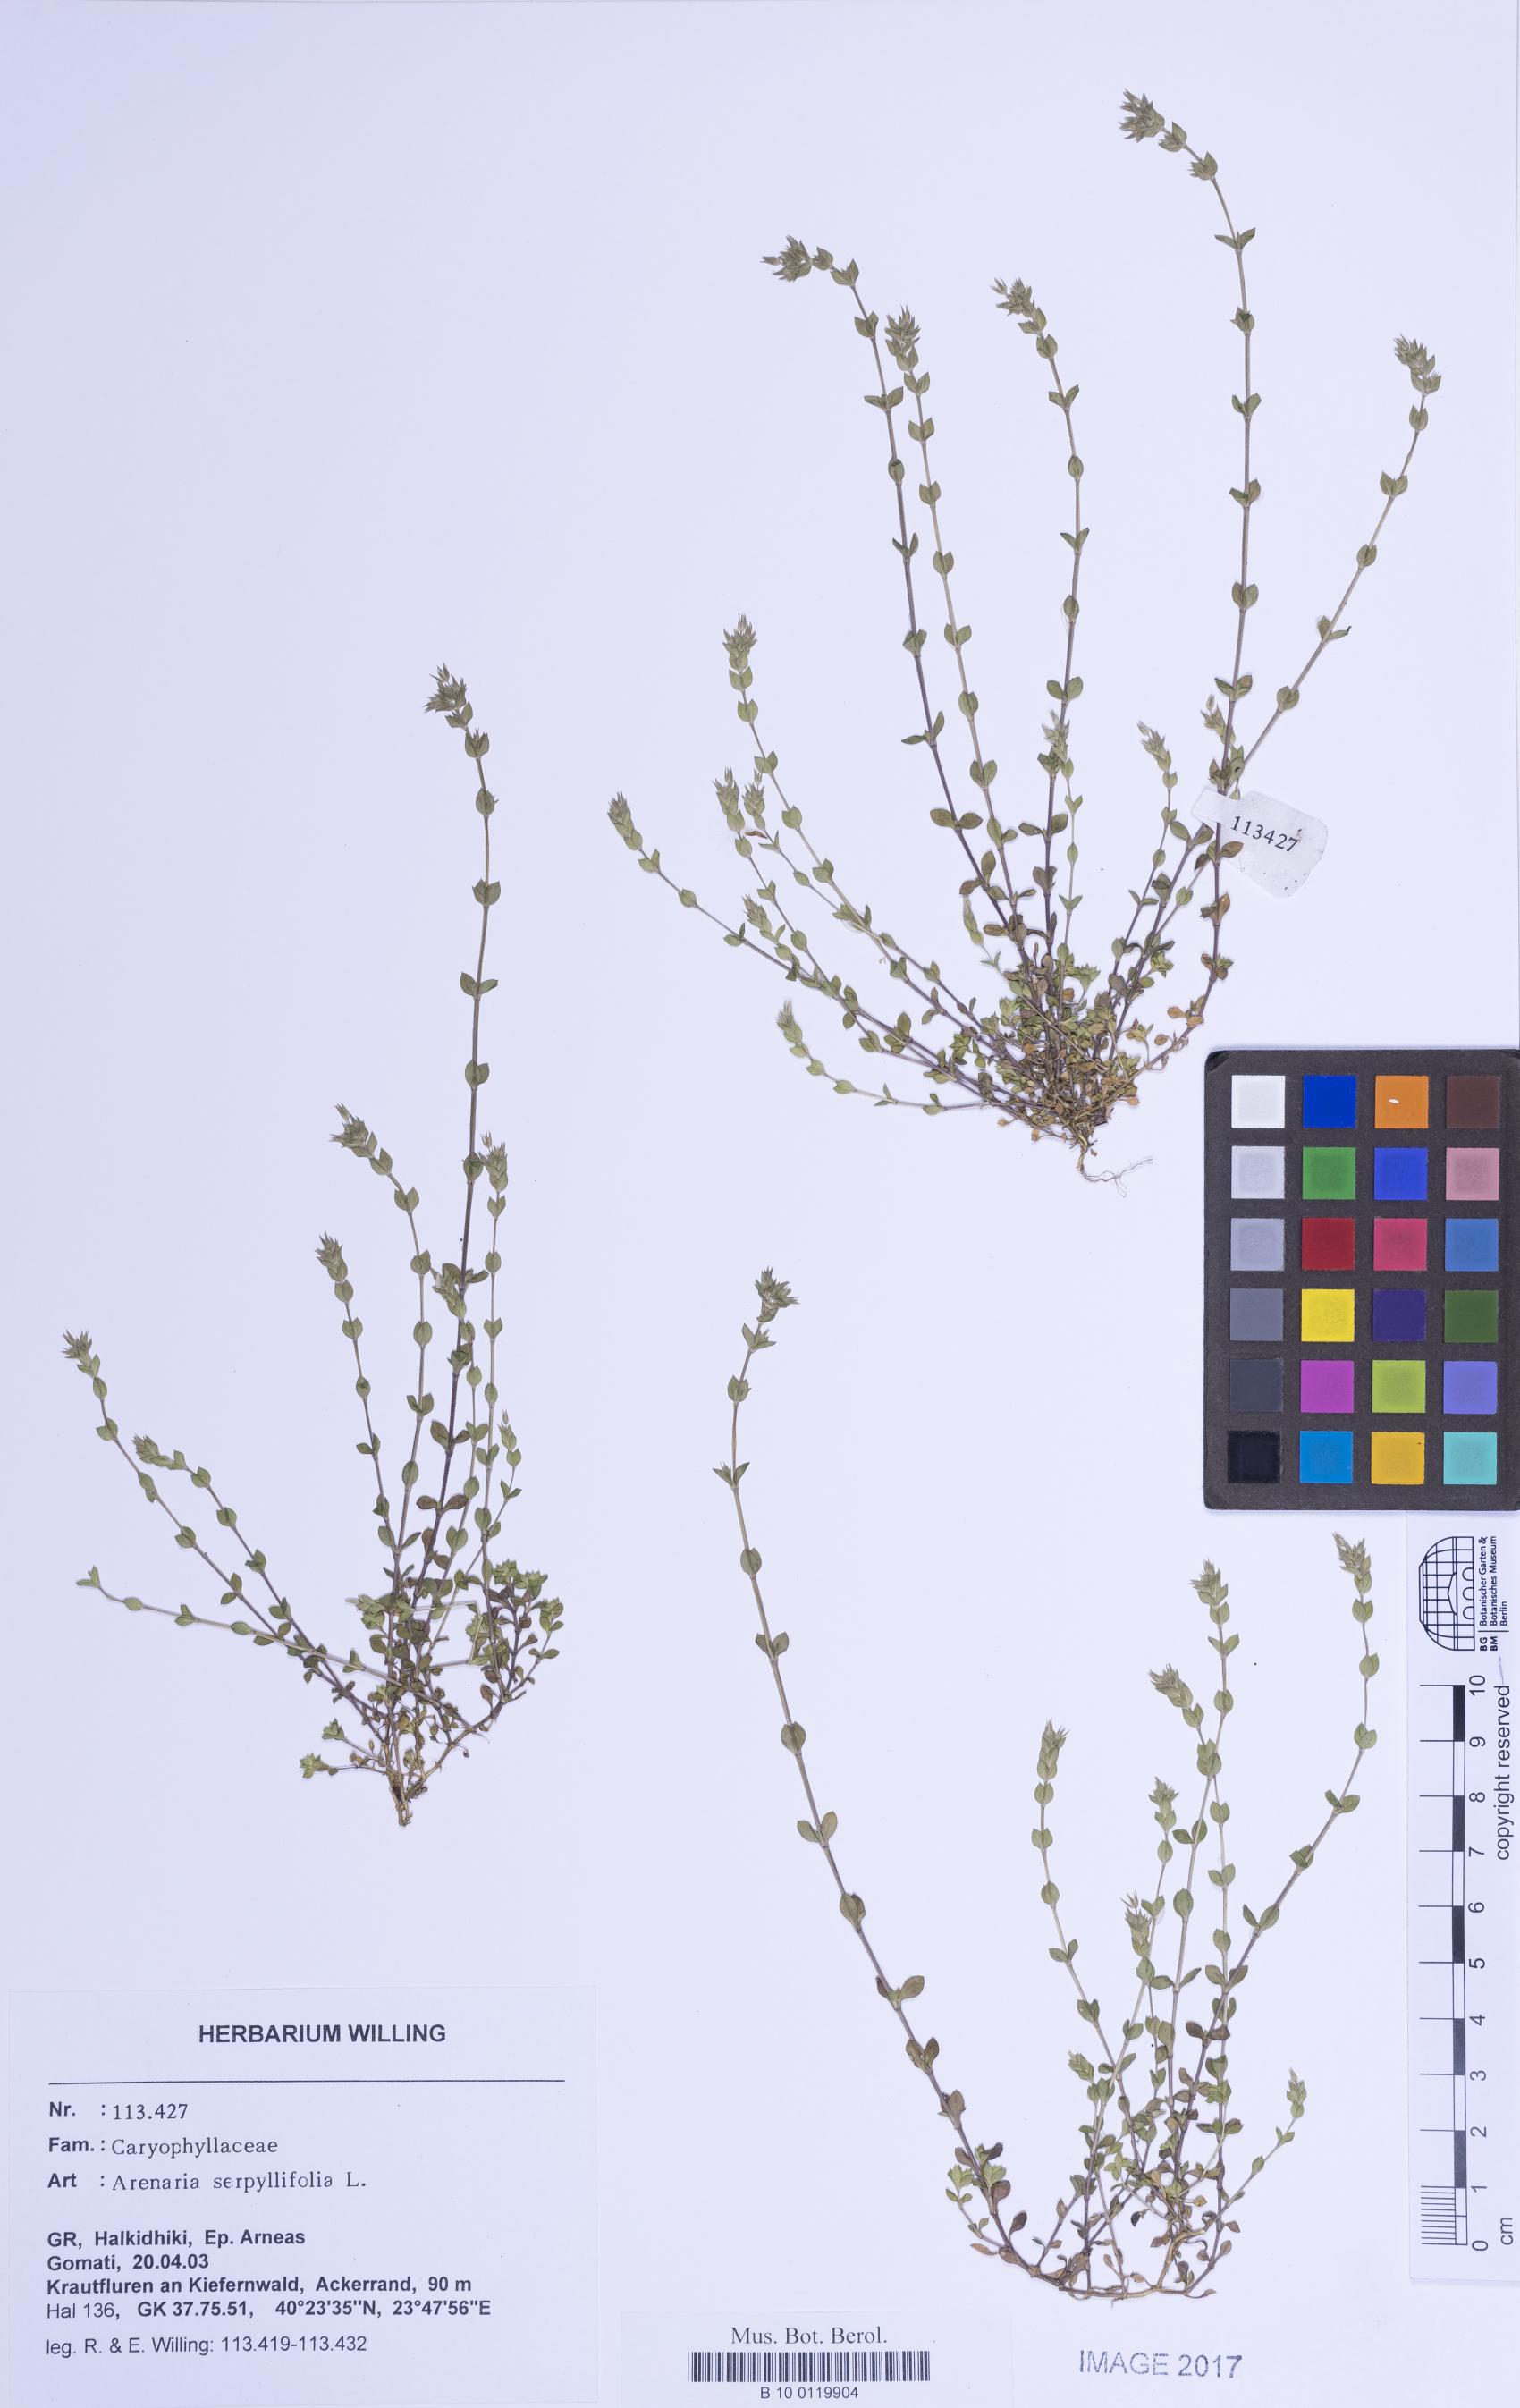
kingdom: Plantae
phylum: Tracheophyta
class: Magnoliopsida
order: Caryophyllales
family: Caryophyllaceae
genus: Arenaria
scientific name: Arenaria serpyllifolia
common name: Thyme-leaved sandwort
